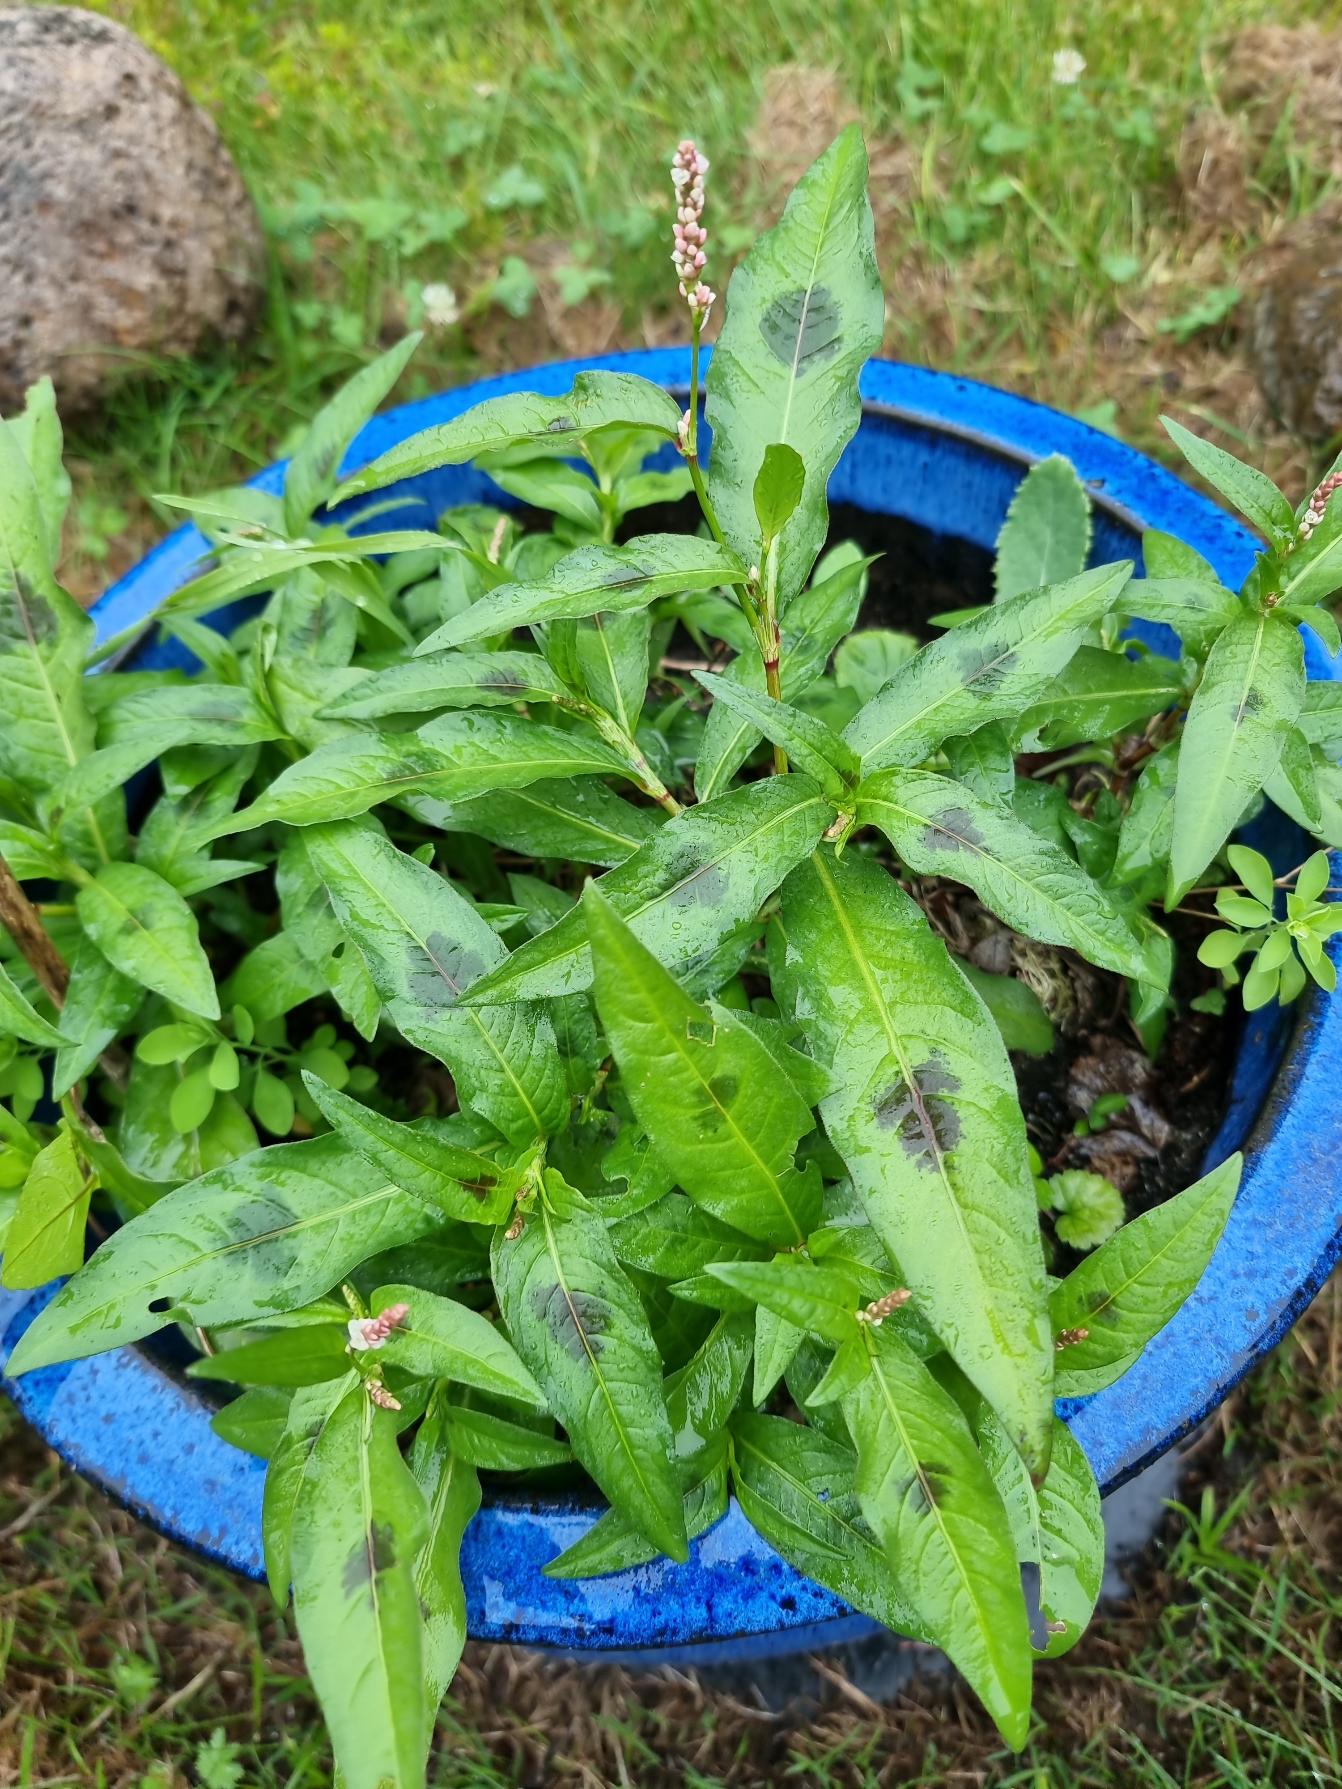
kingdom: Plantae
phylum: Tracheophyta
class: Magnoliopsida
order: Caryophyllales
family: Polygonaceae
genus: Persicaria
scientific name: Persicaria maculosa
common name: Fersken-pileurt
